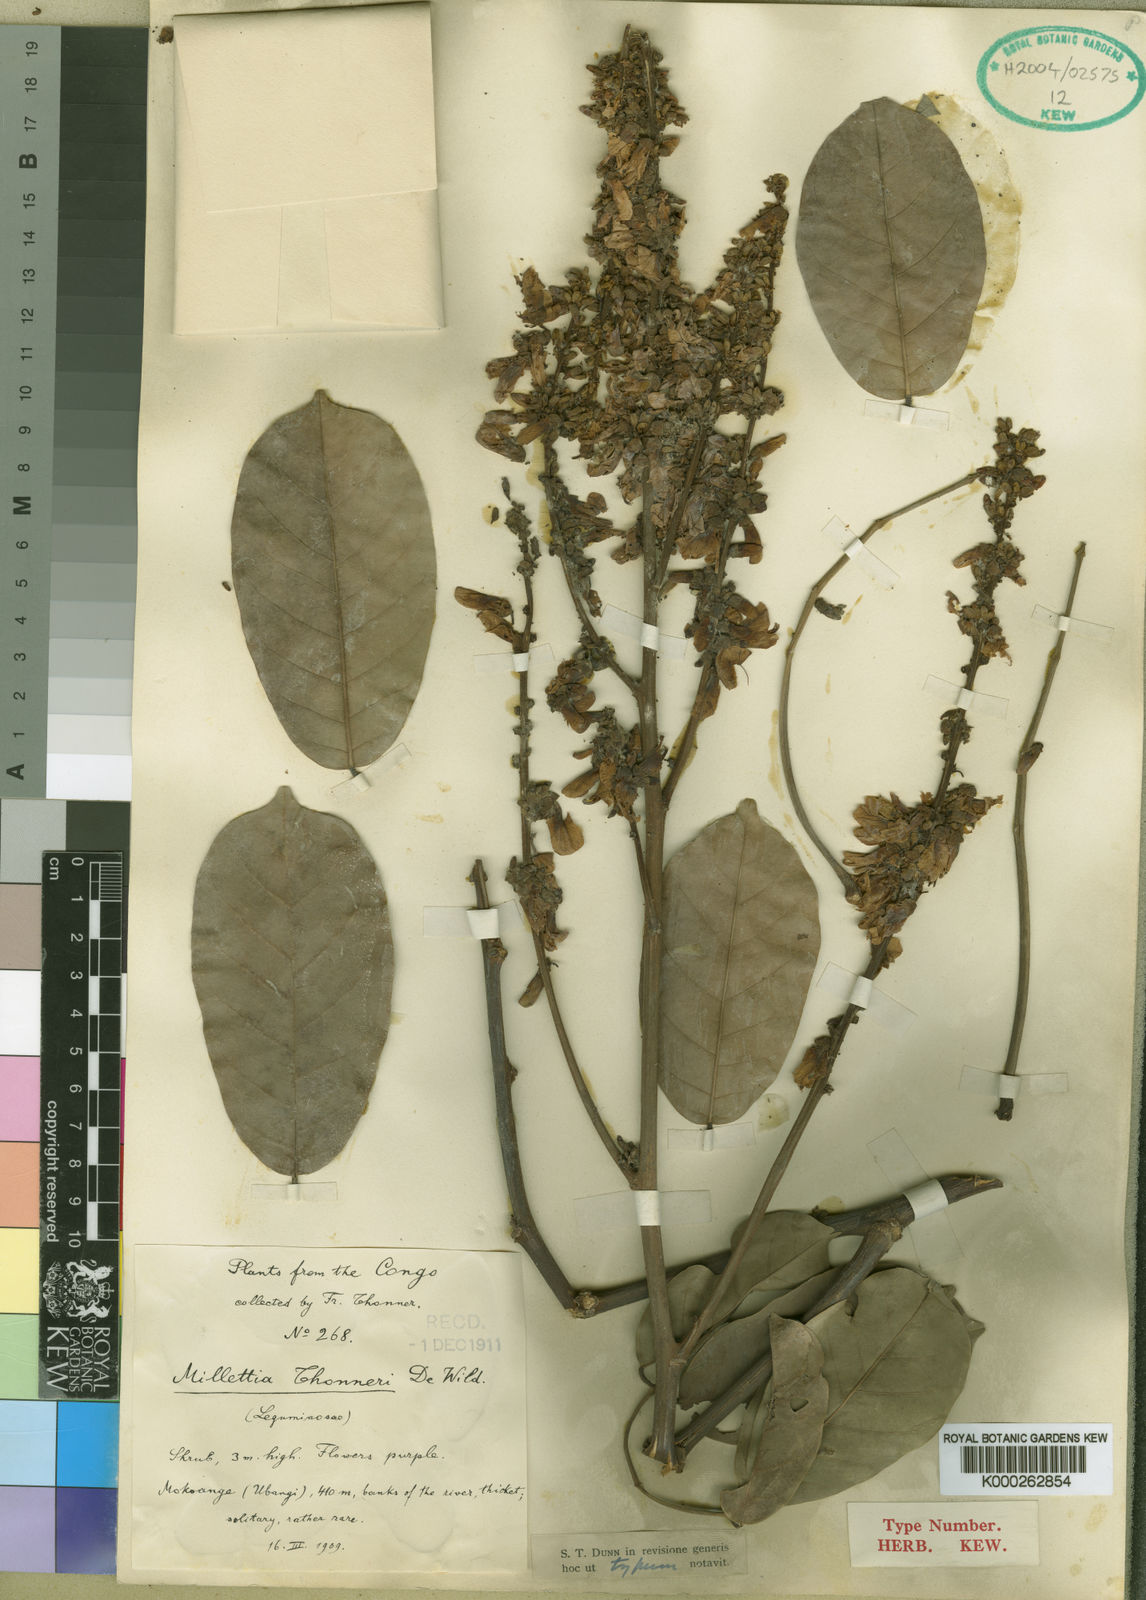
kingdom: Plantae
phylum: Tracheophyta
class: Magnoliopsida
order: Fabales
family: Fabaceae
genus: Millettia
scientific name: Millettia thonneri
